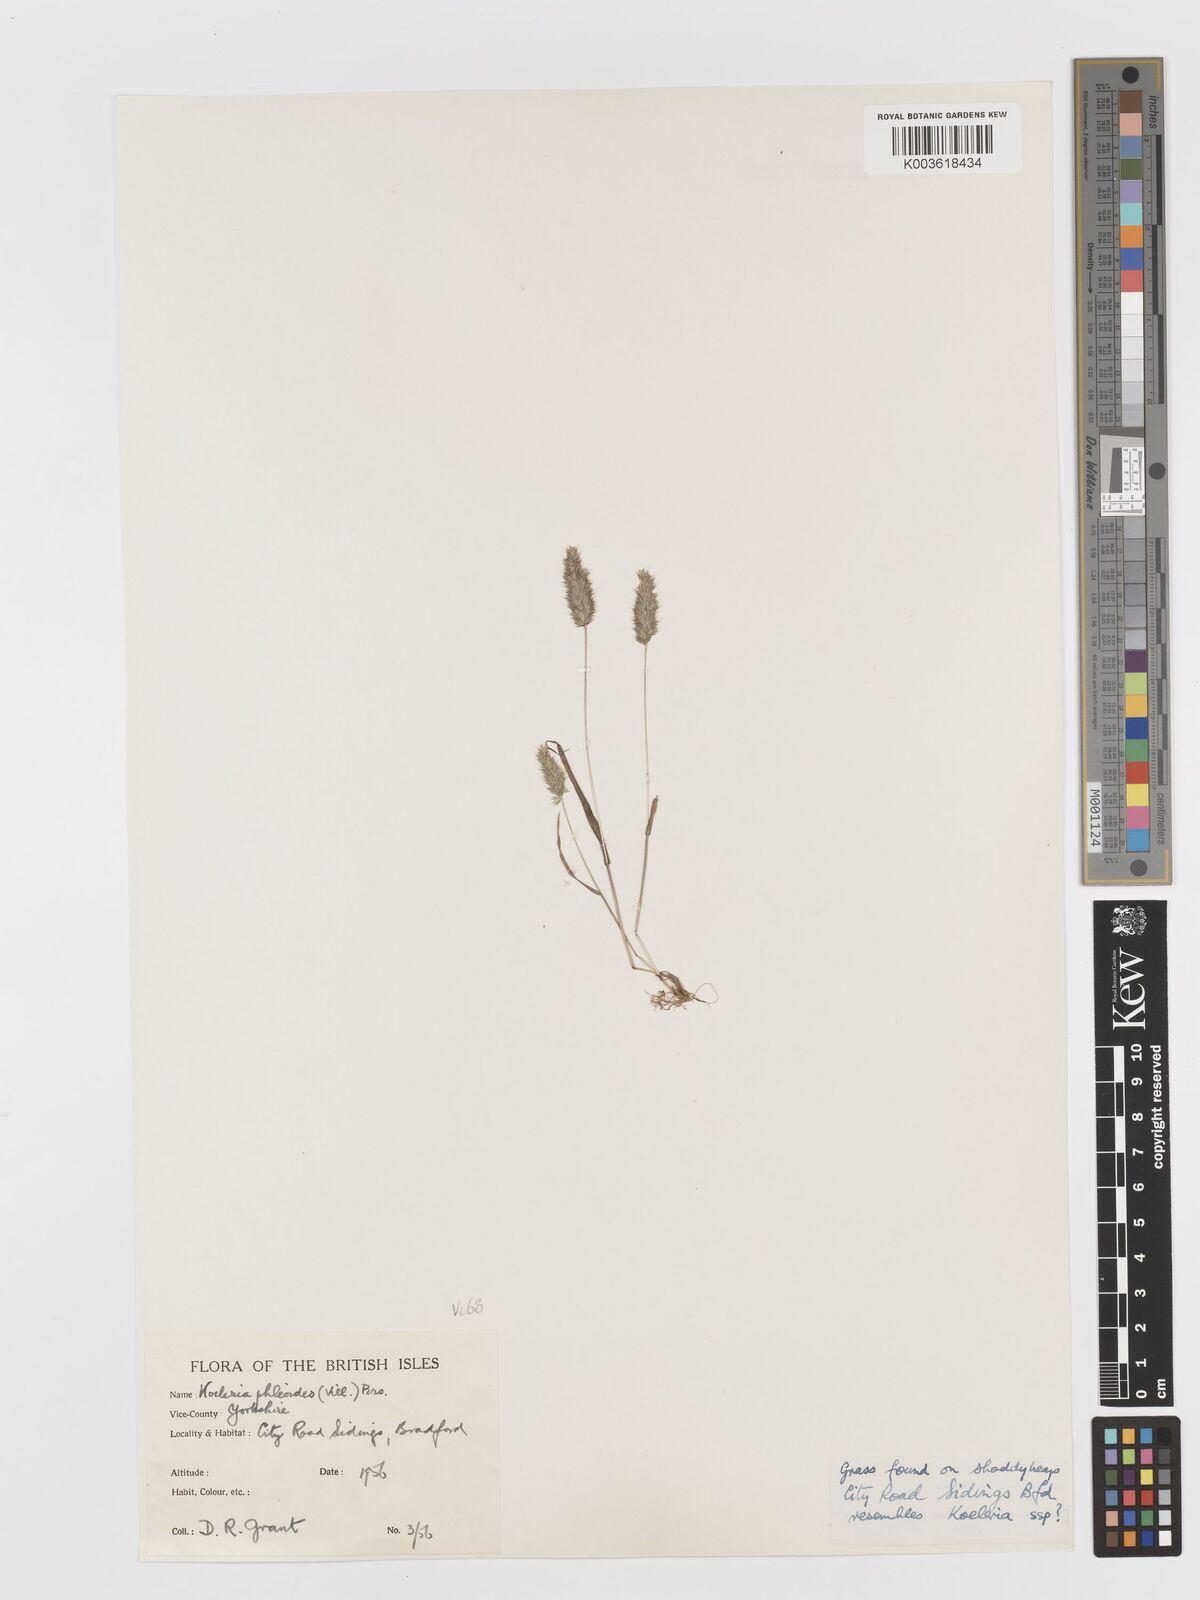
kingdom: Plantae
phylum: Tracheophyta
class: Liliopsida
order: Poales
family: Poaceae
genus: Rostraria
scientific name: Rostraria cristata
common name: Mediterranean hair-grass
